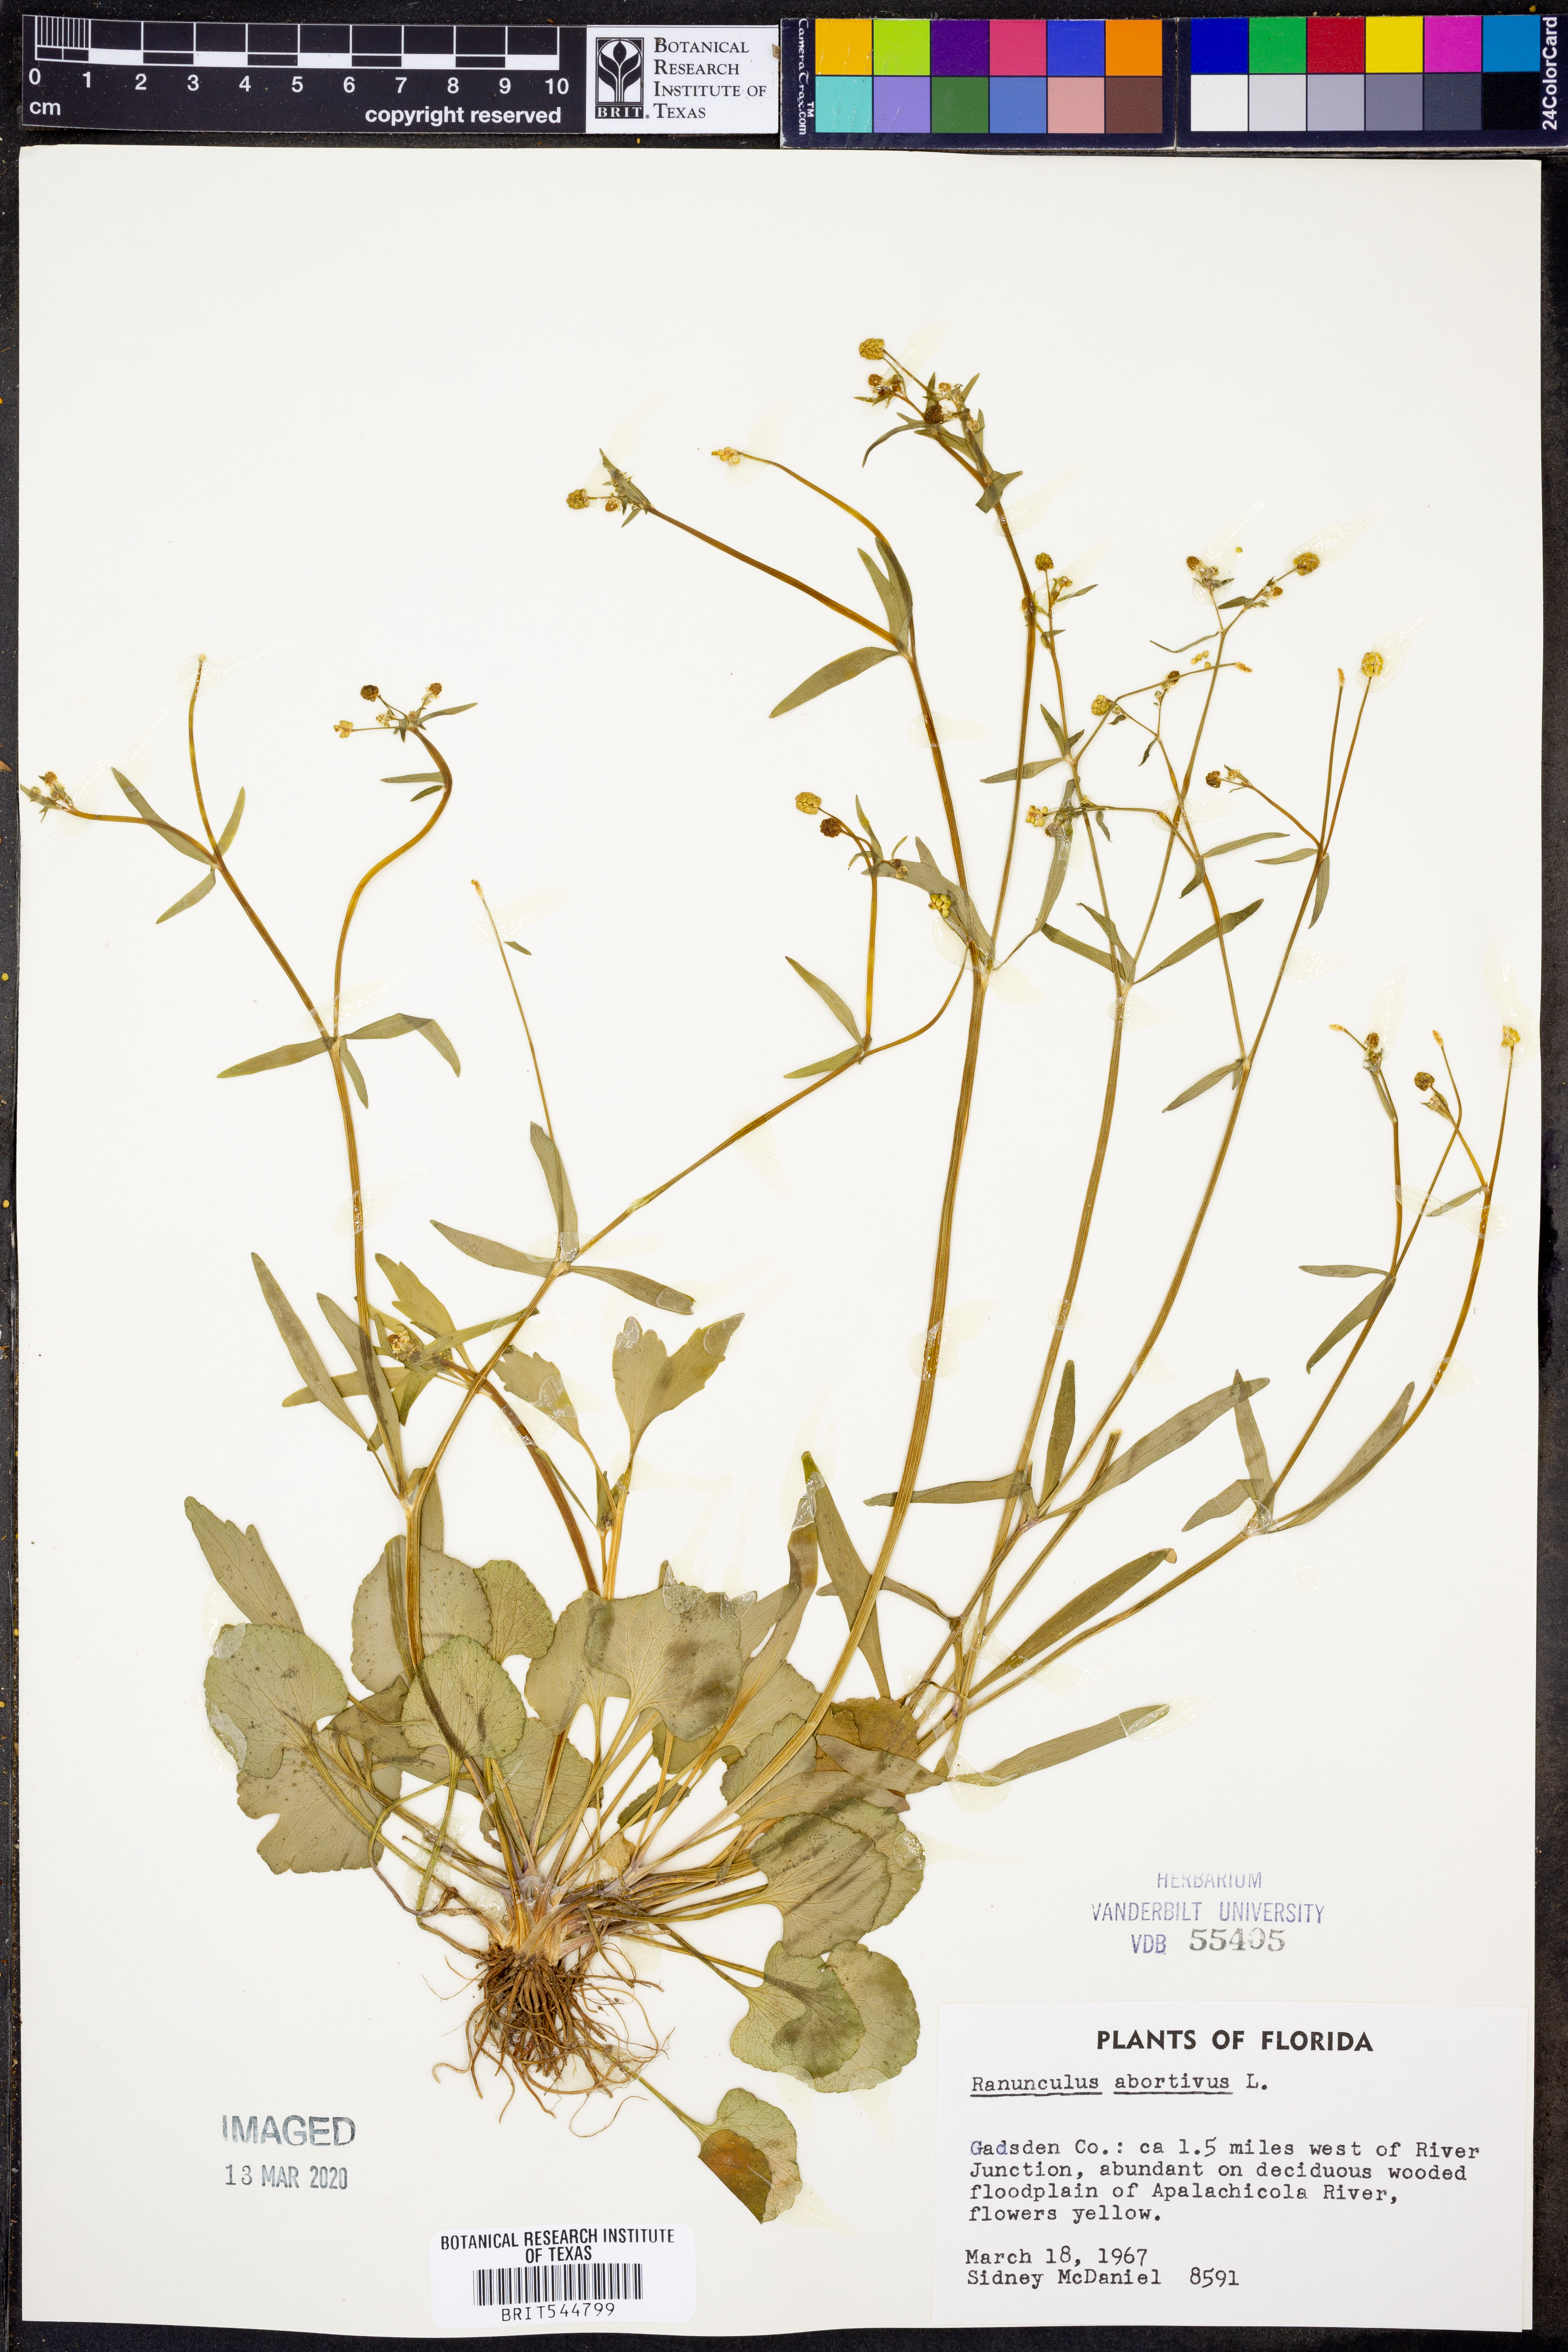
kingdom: Plantae
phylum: Tracheophyta
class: Magnoliopsida
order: Ranunculales
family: Ranunculaceae
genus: Ranunculus
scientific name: Ranunculus abortivus
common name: Early wood buttercup
